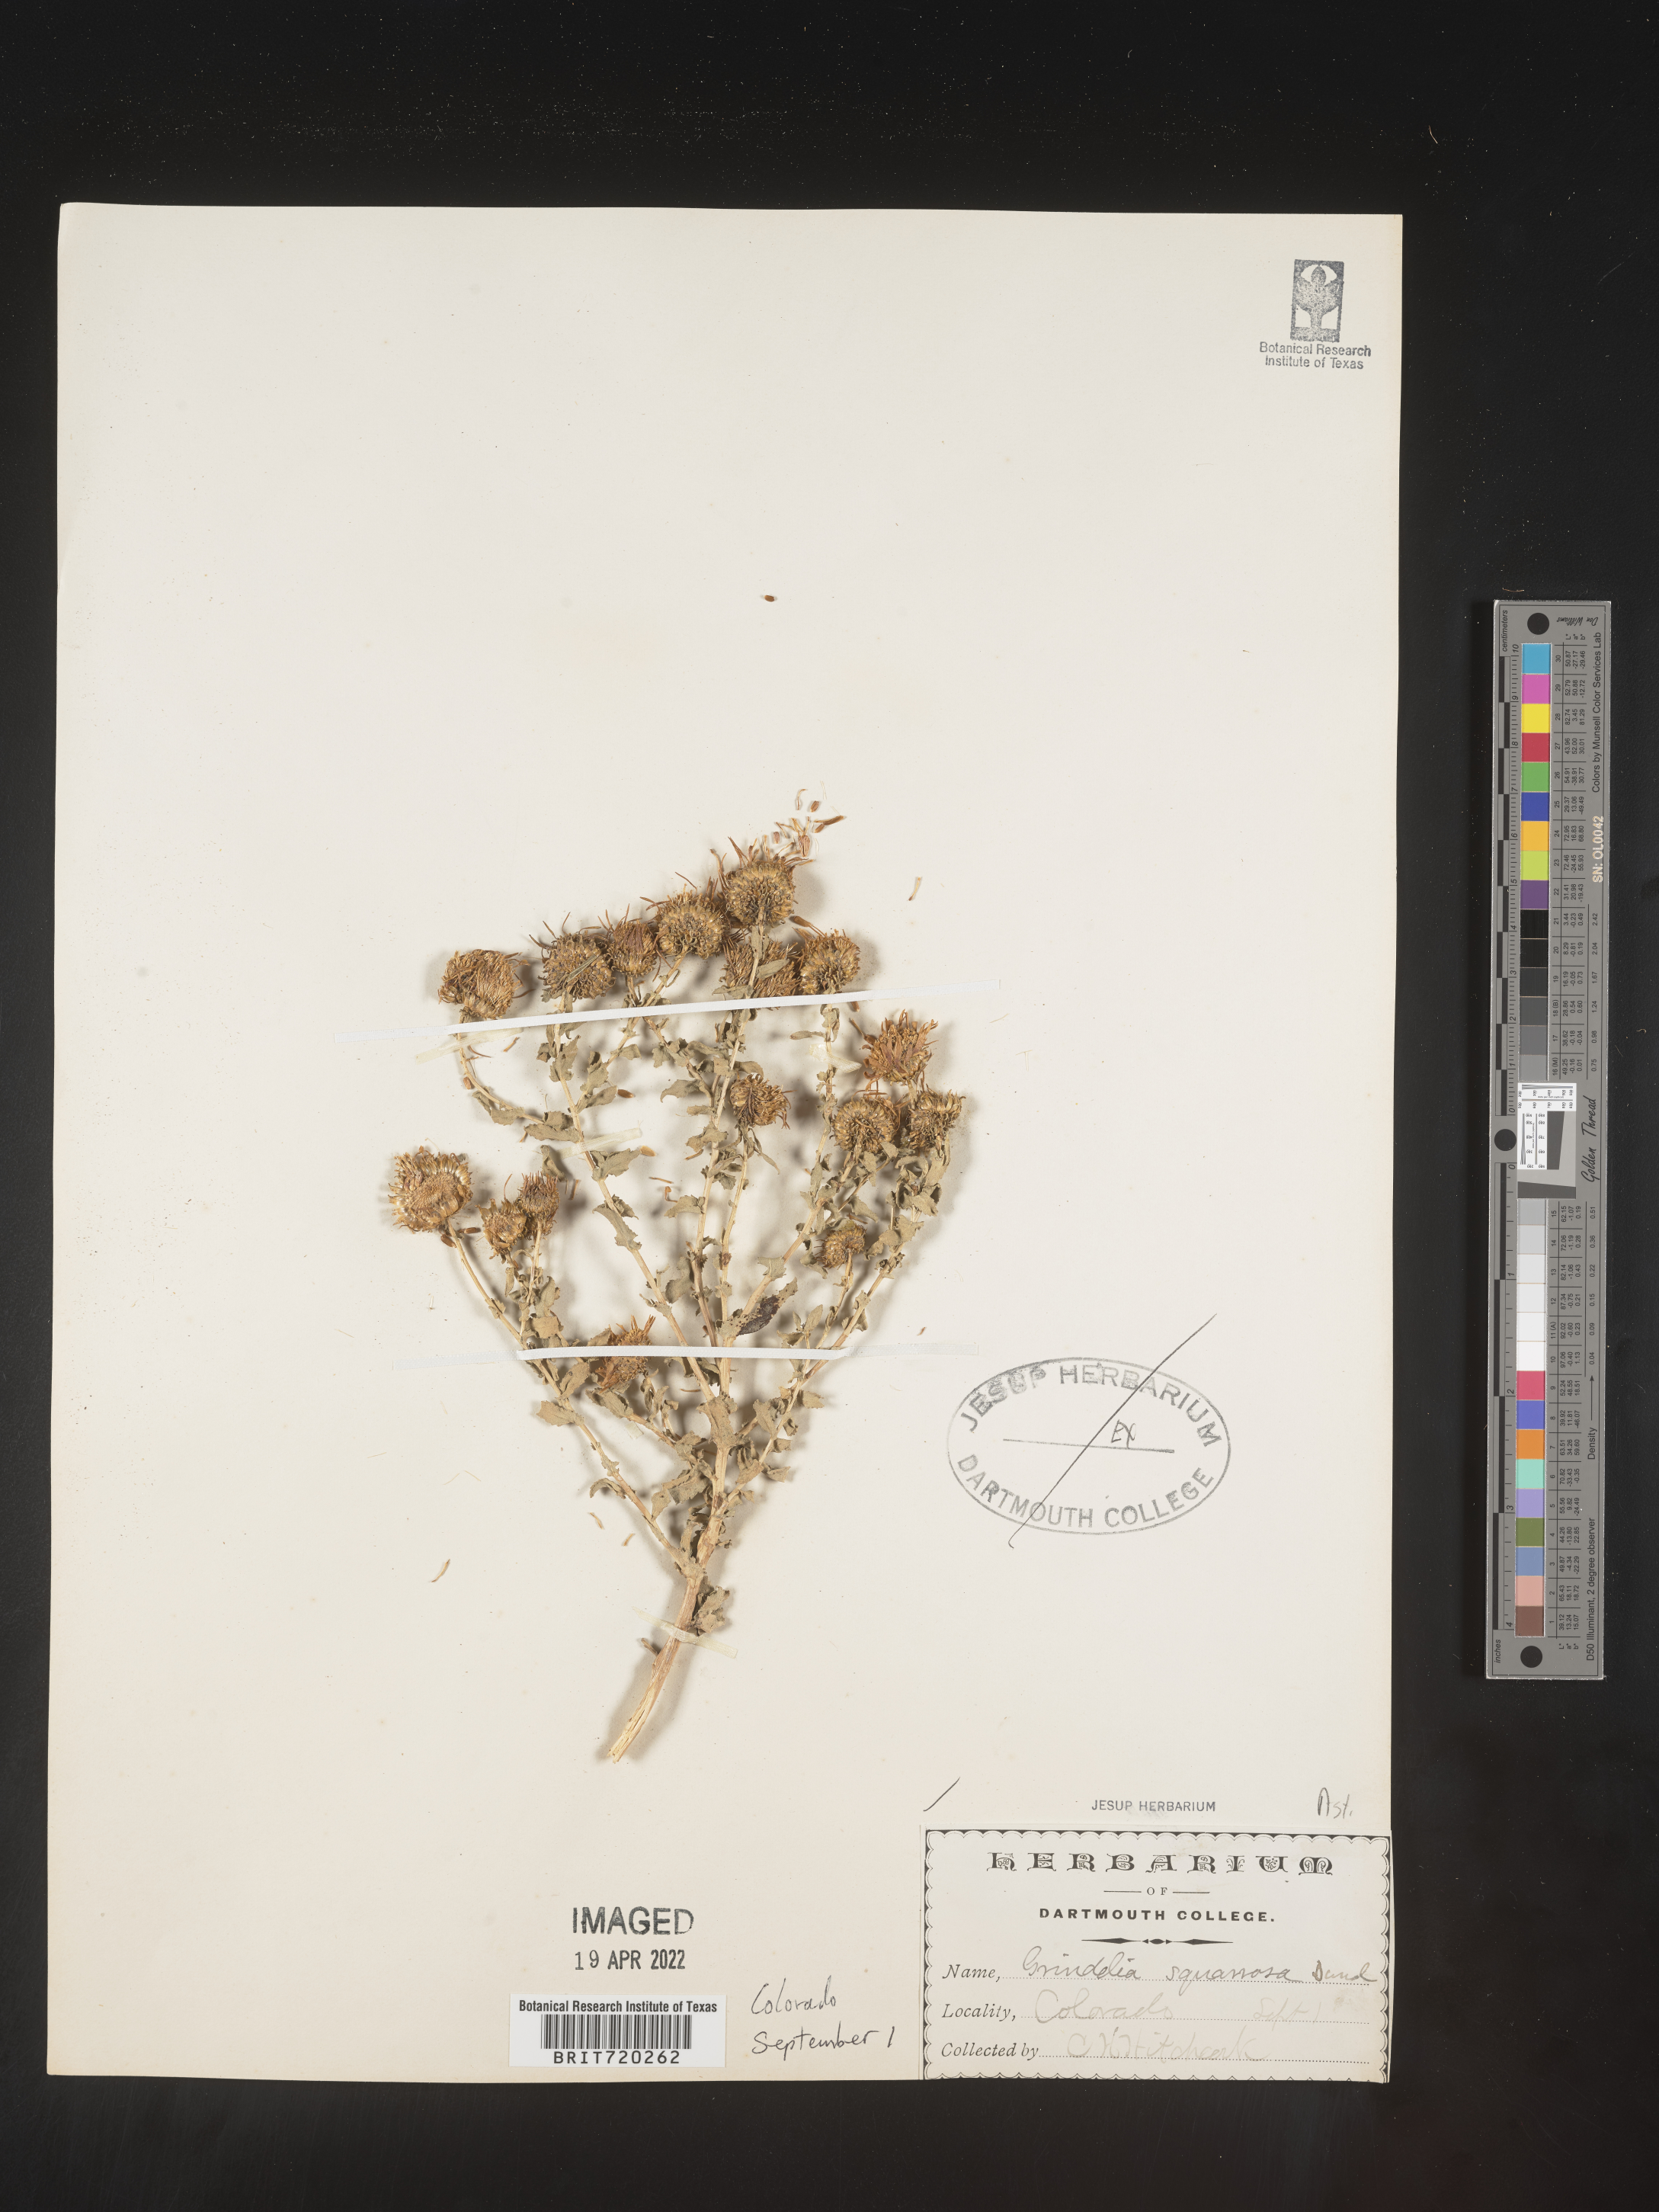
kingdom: Plantae
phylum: Tracheophyta
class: Magnoliopsida
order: Asterales
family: Asteraceae
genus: Grindelia
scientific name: Grindelia squarrosa
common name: Curly-cup gumweed
